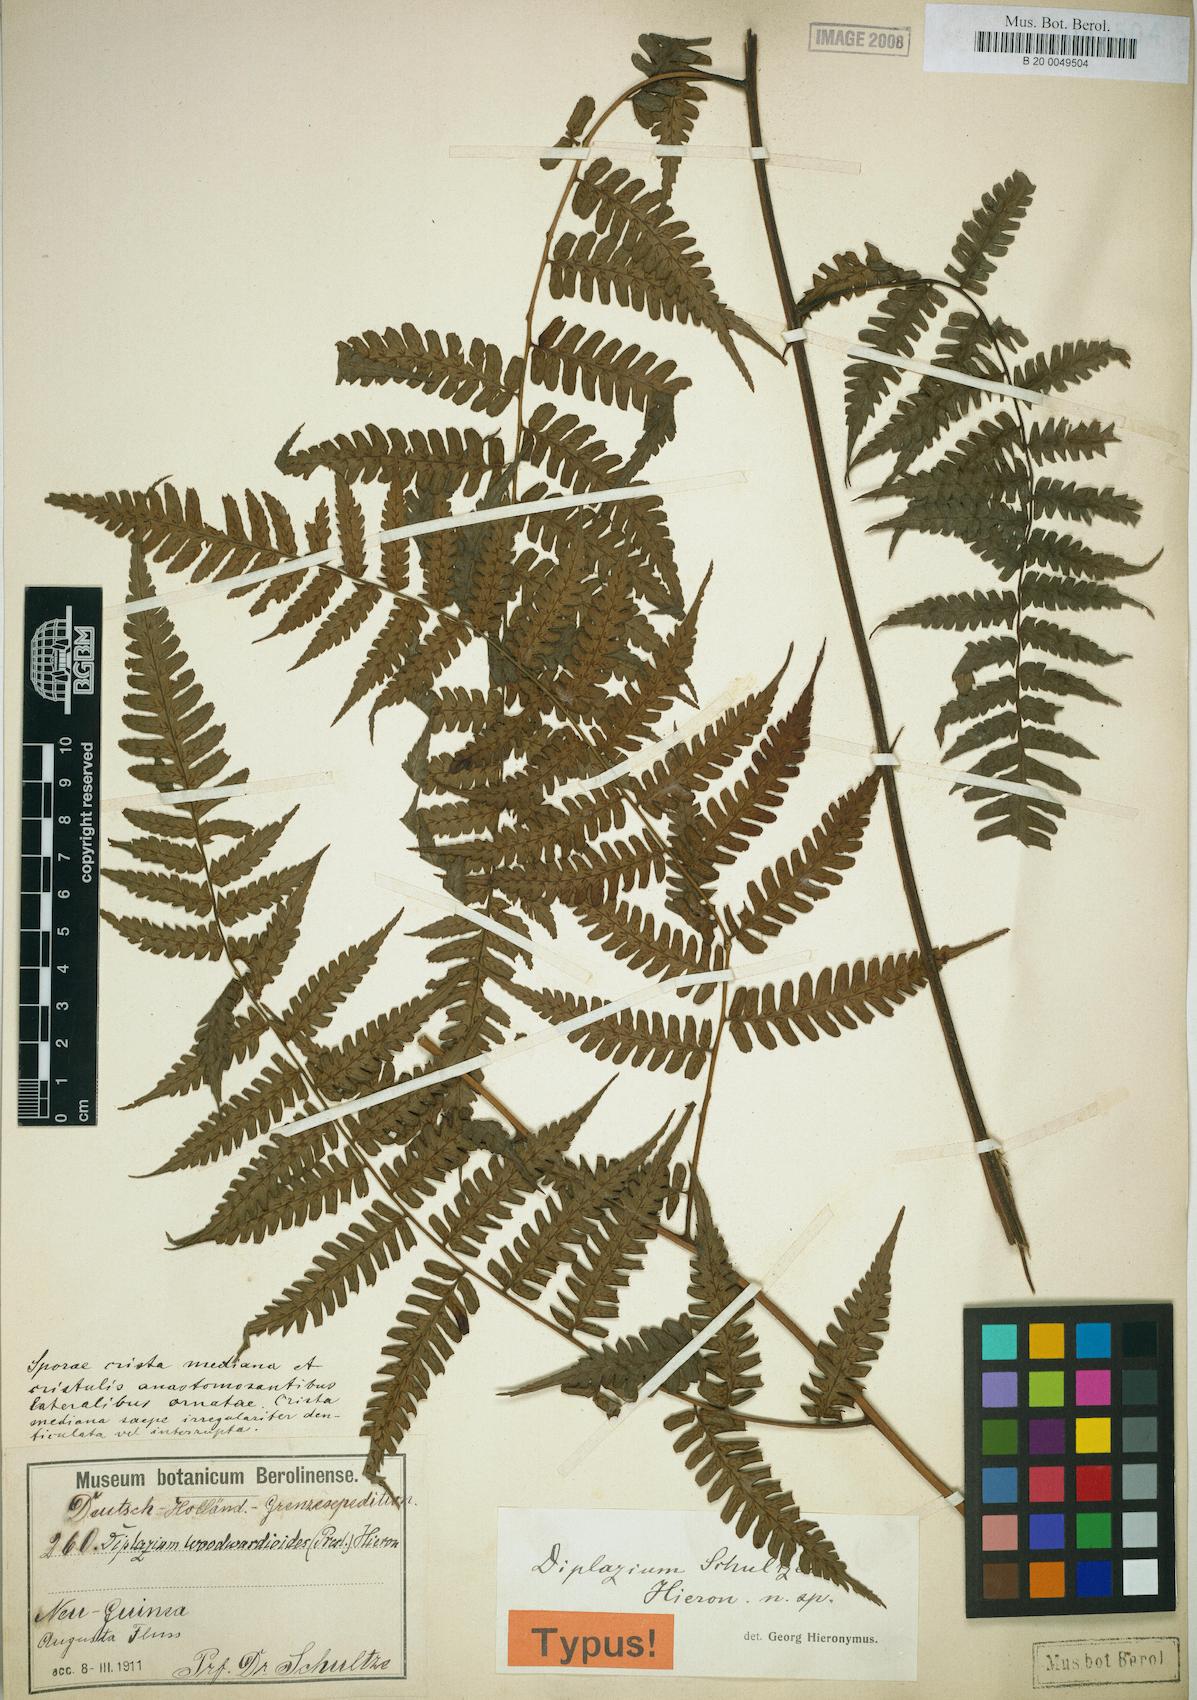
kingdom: Plantae
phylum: Tracheophyta
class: Polypodiopsida
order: Polypodiales
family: Athyriaceae
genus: Diplazium
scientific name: Diplazium schultzei
